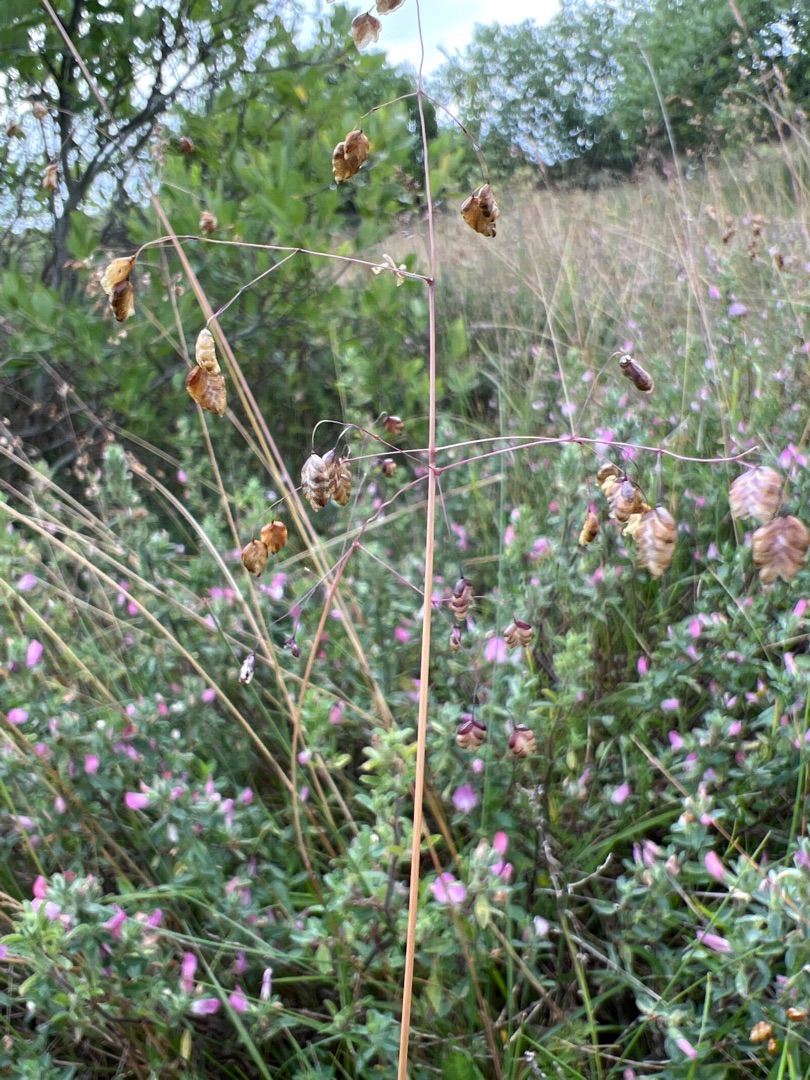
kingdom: Plantae
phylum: Tracheophyta
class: Liliopsida
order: Poales
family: Poaceae
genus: Briza
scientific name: Briza media
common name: Hjertegræs
